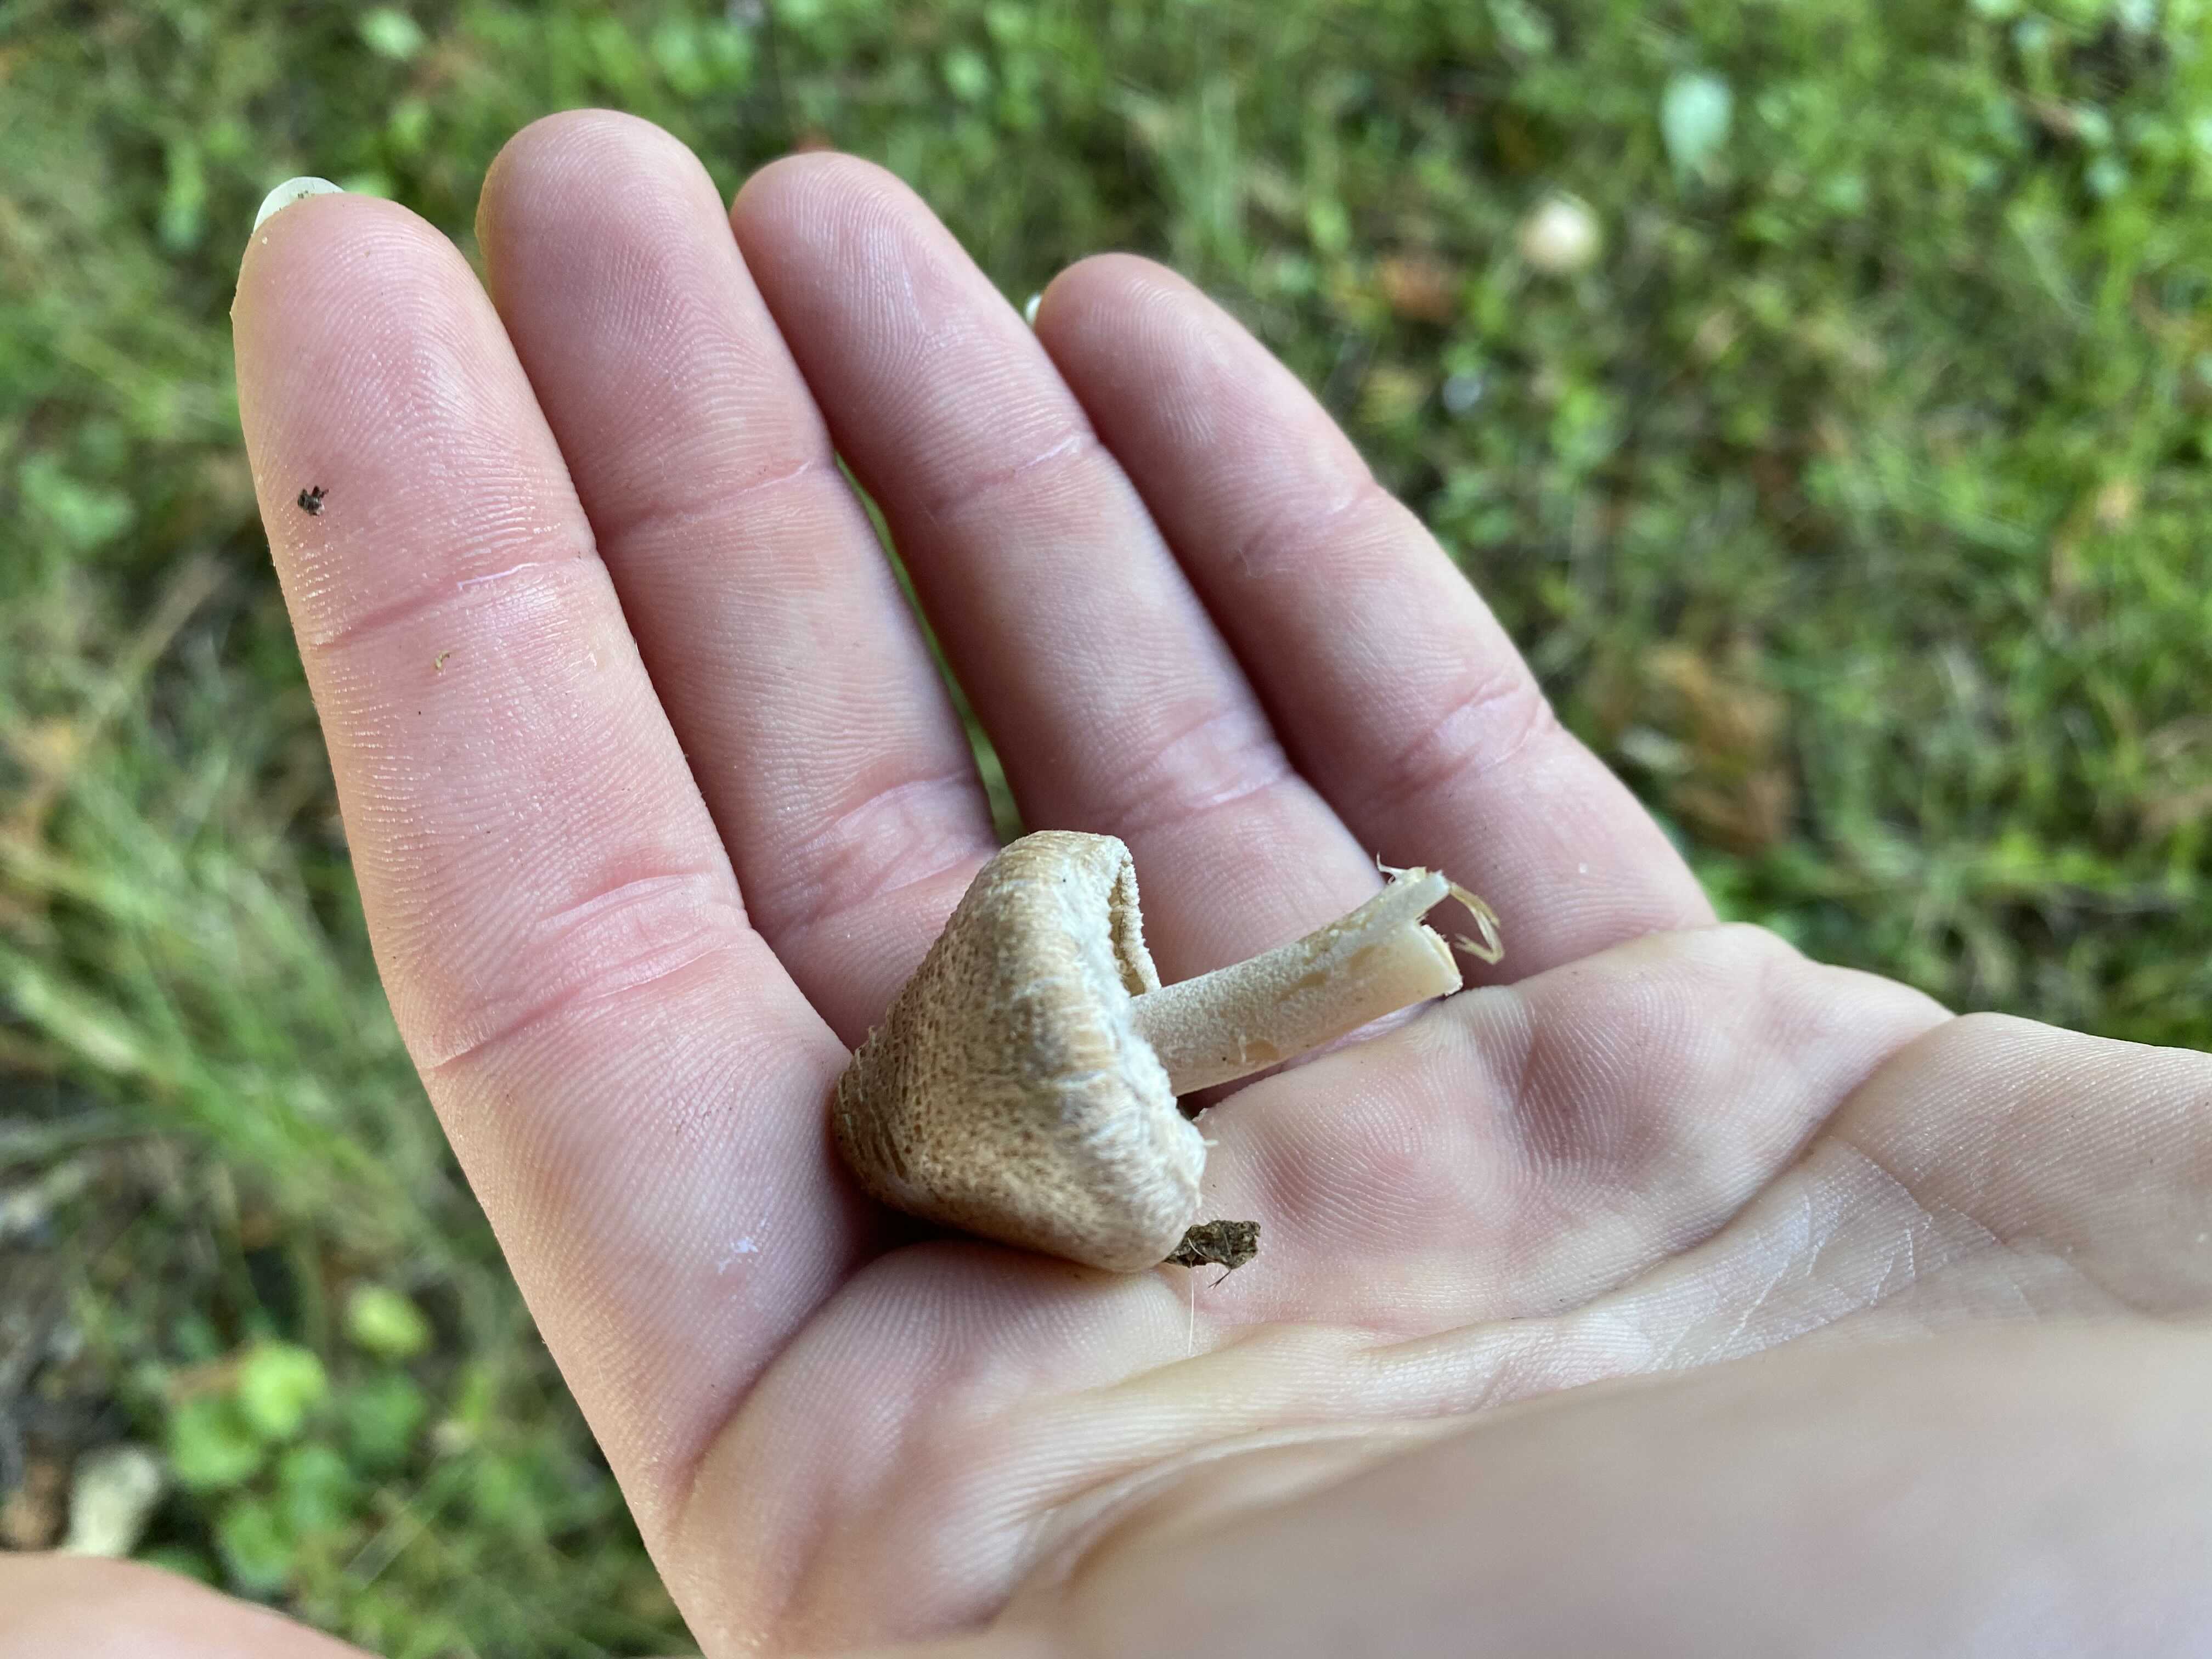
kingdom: Fungi
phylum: Basidiomycota
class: Agaricomycetes
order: Agaricales
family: Inocybaceae
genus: Inocybe
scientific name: Inocybe
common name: trævlhat
